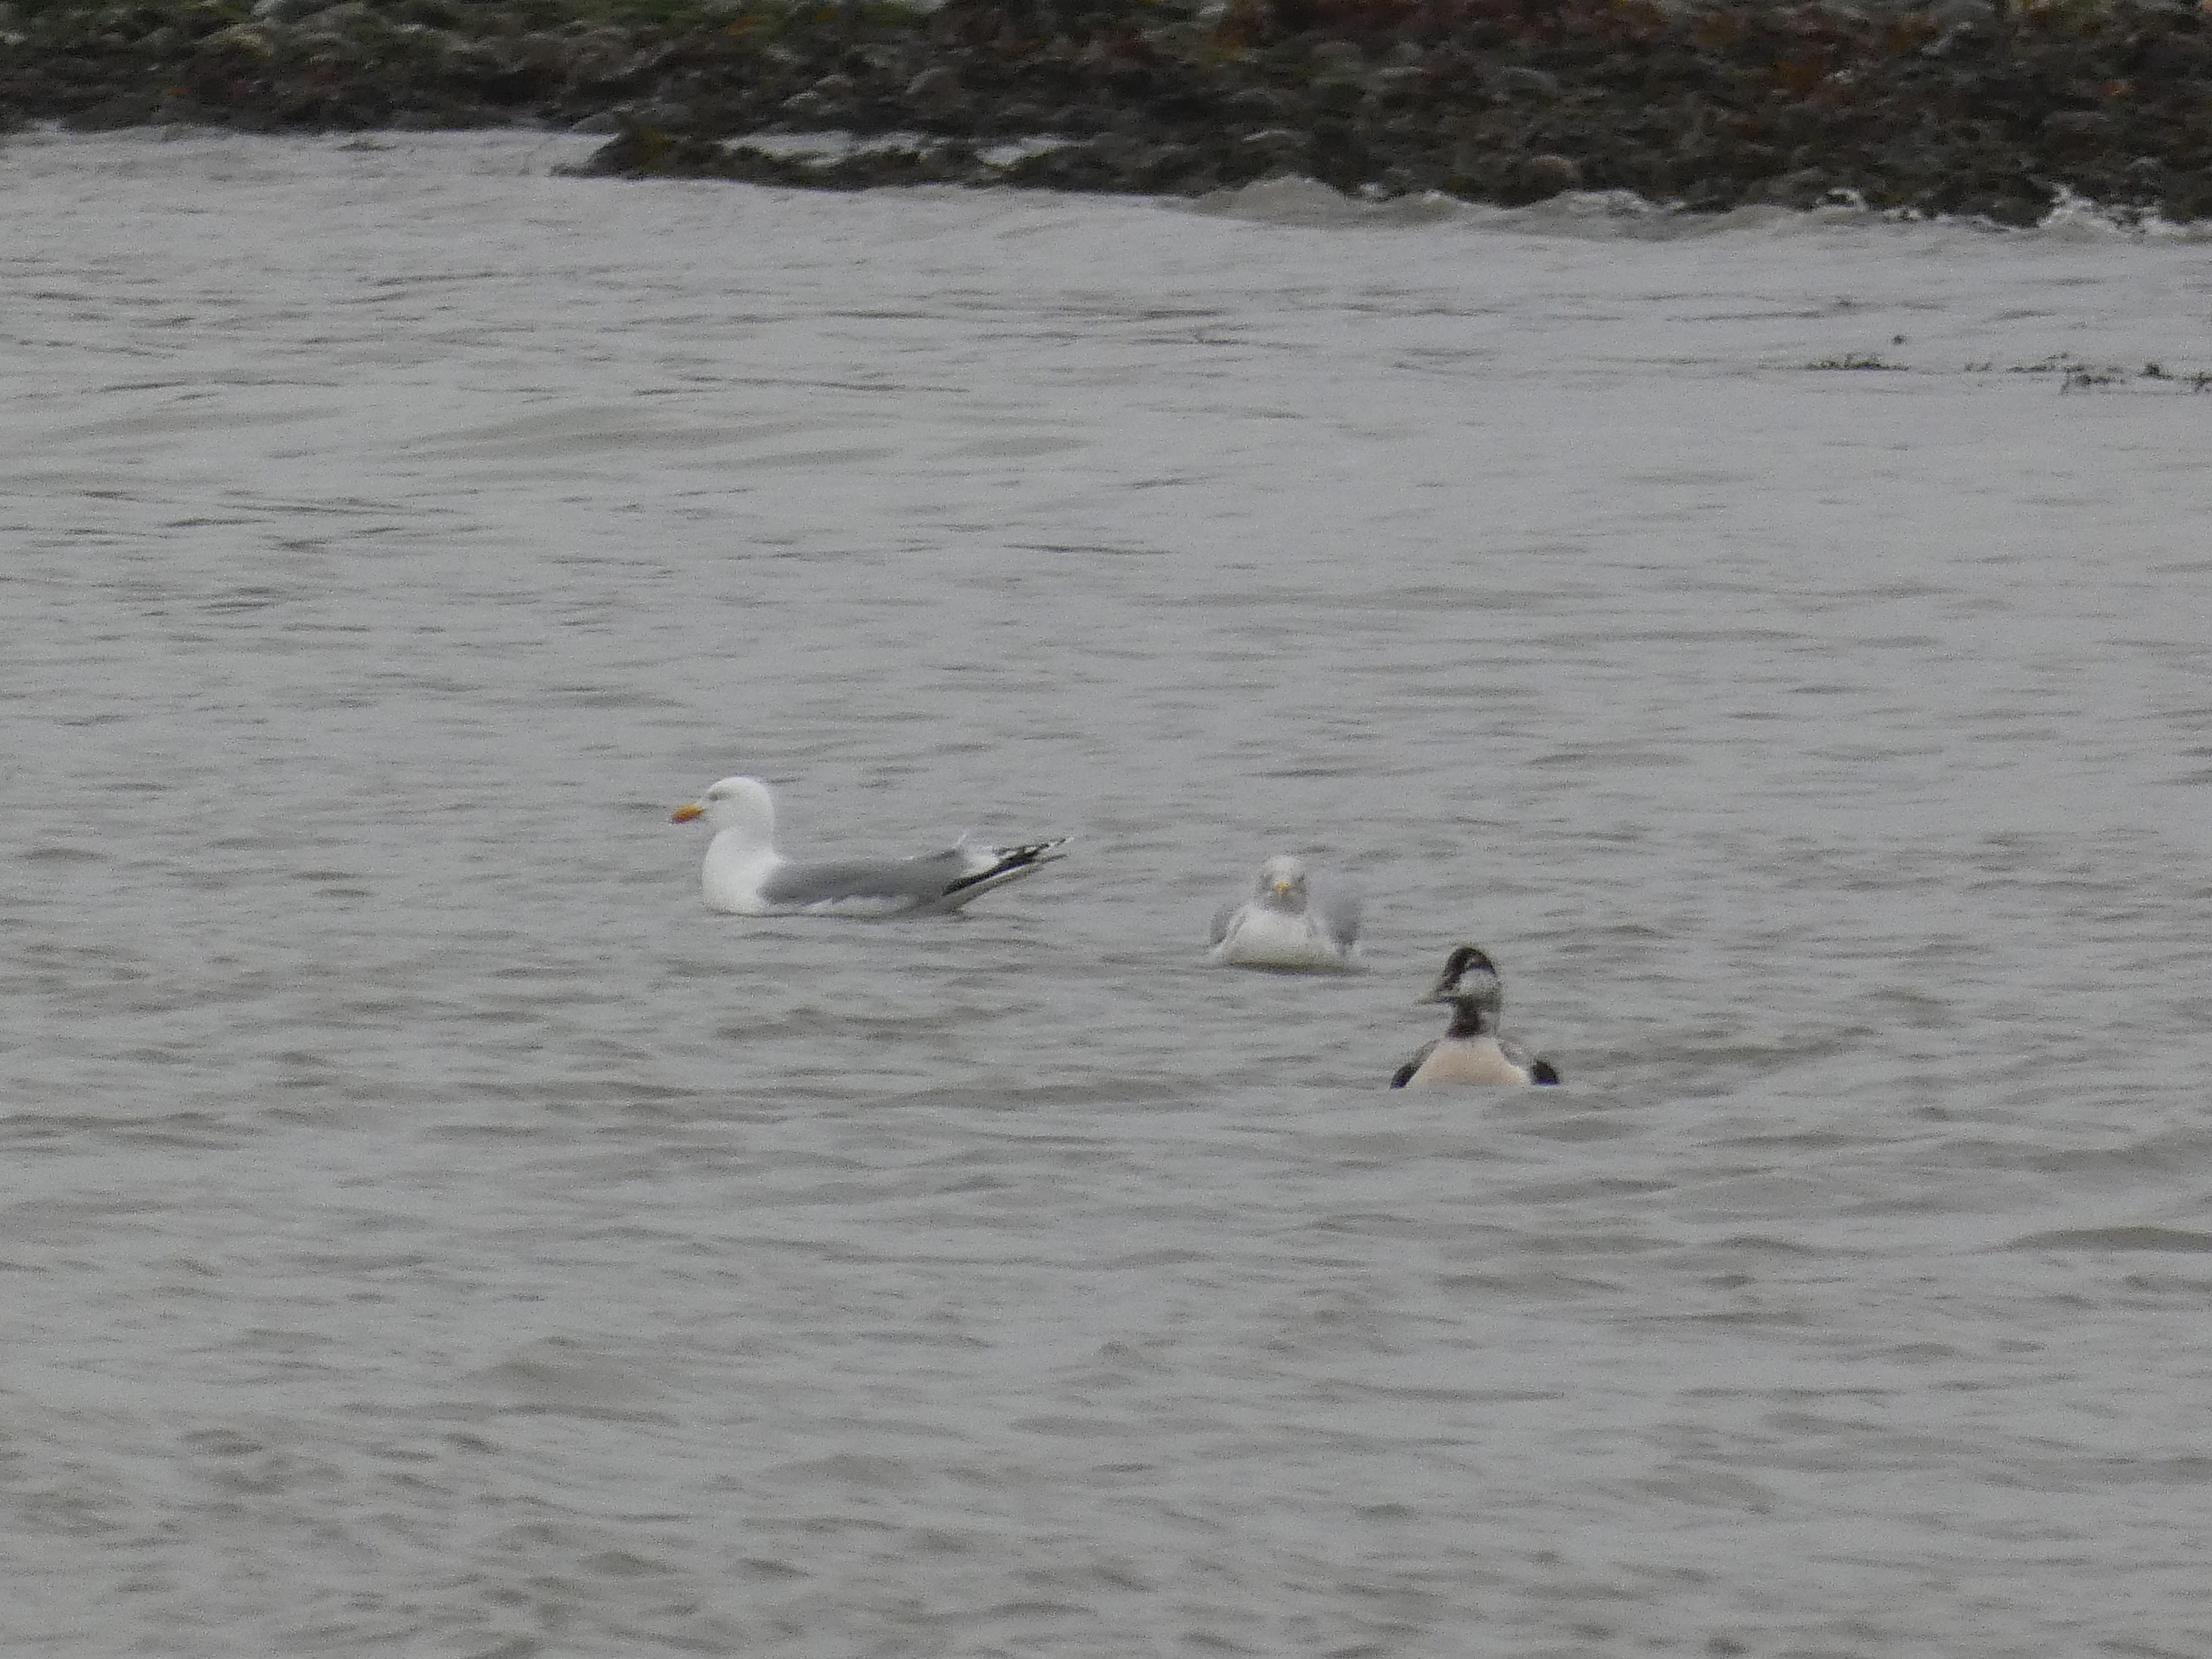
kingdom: Animalia
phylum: Chordata
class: Aves
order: Anseriformes
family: Anatidae
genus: Somateria
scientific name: Somateria mollissima
